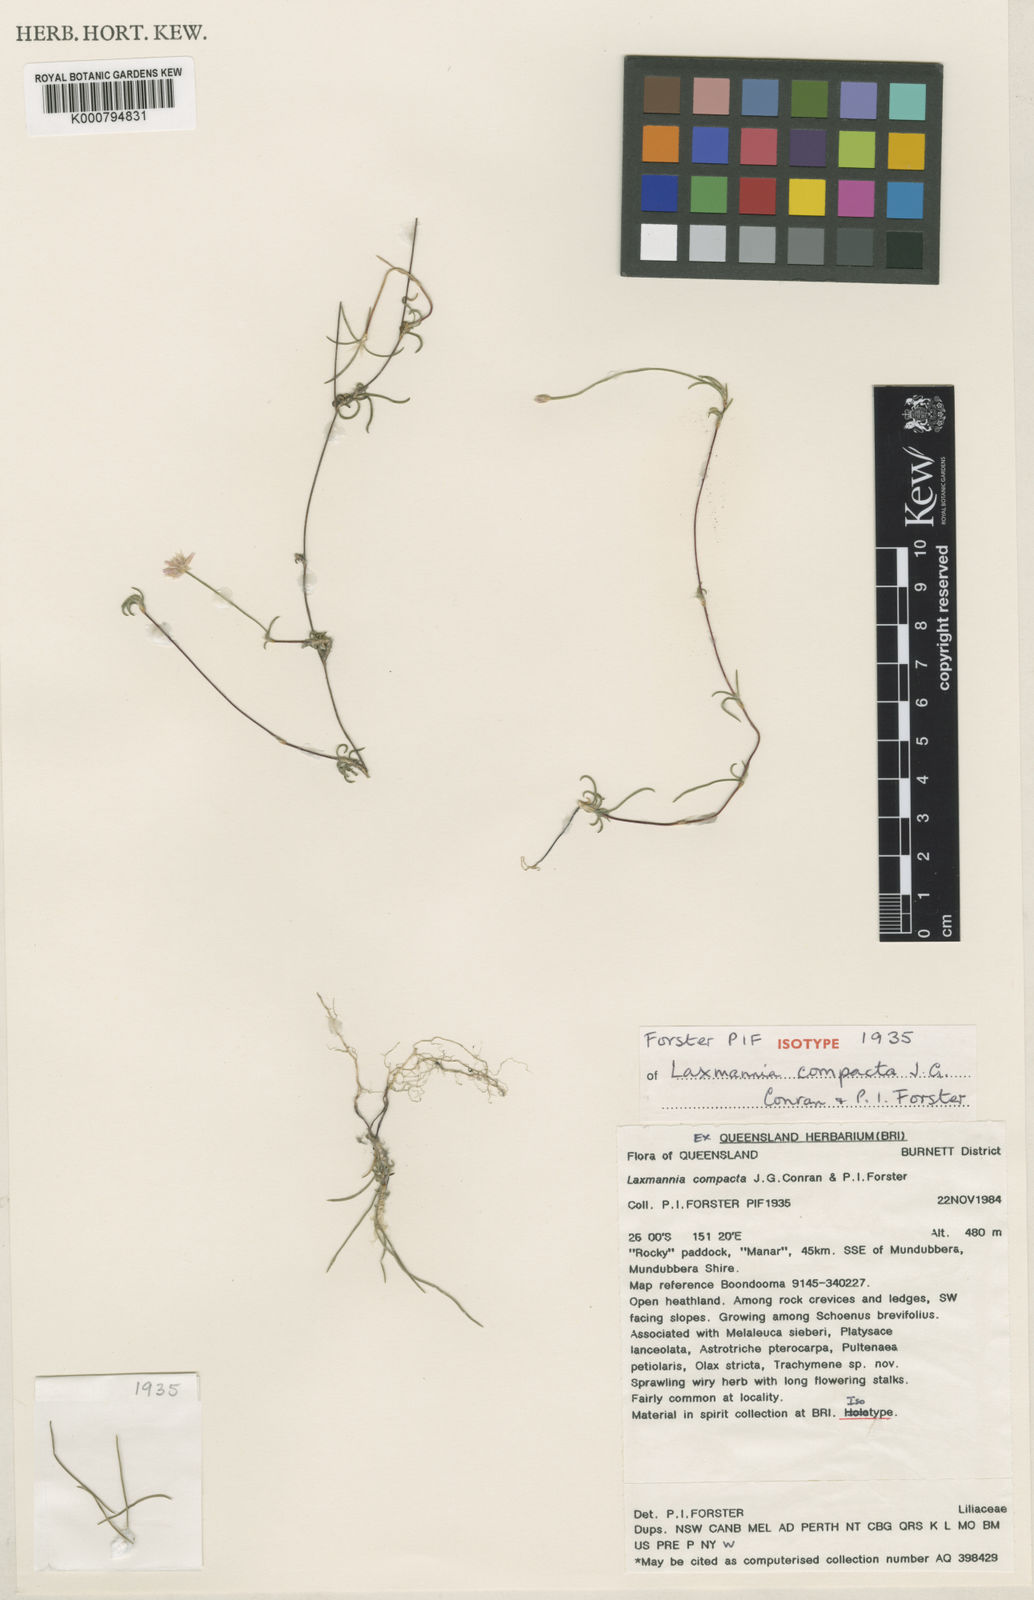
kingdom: Plantae
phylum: Tracheophyta
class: Liliopsida
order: Asparagales
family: Asparagaceae
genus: Laxmannia
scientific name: Laxmannia compacta
